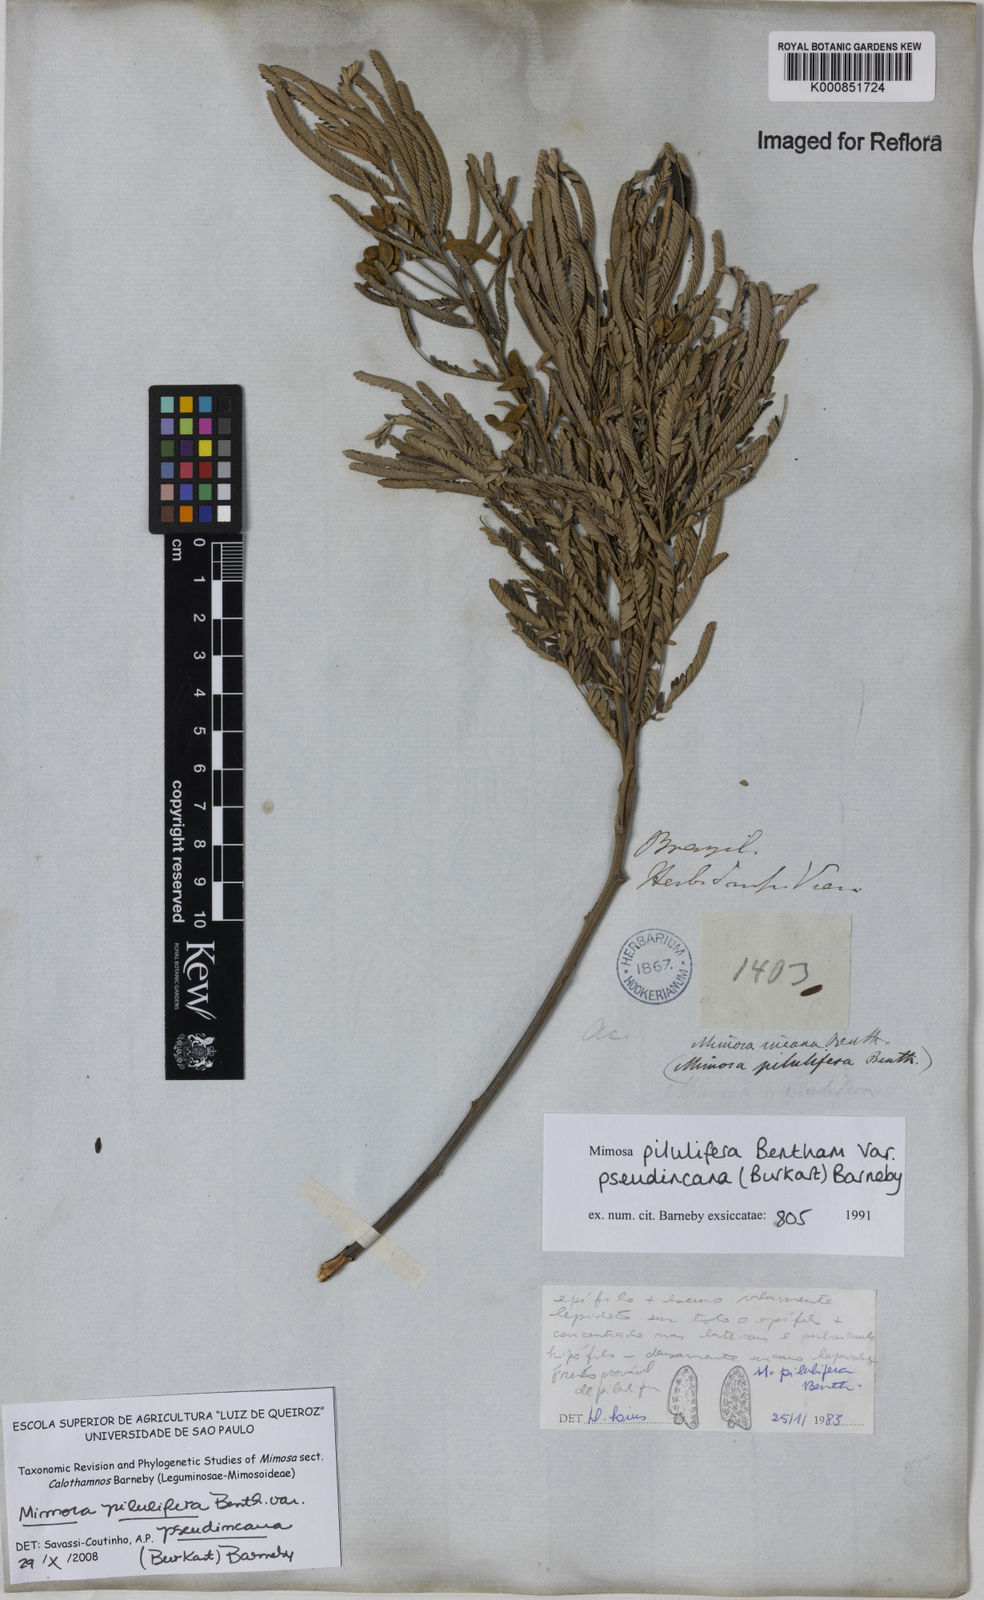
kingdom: Plantae
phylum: Tracheophyta
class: Magnoliopsida
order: Fabales
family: Fabaceae
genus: Mimosa
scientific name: Mimosa pilulifera
